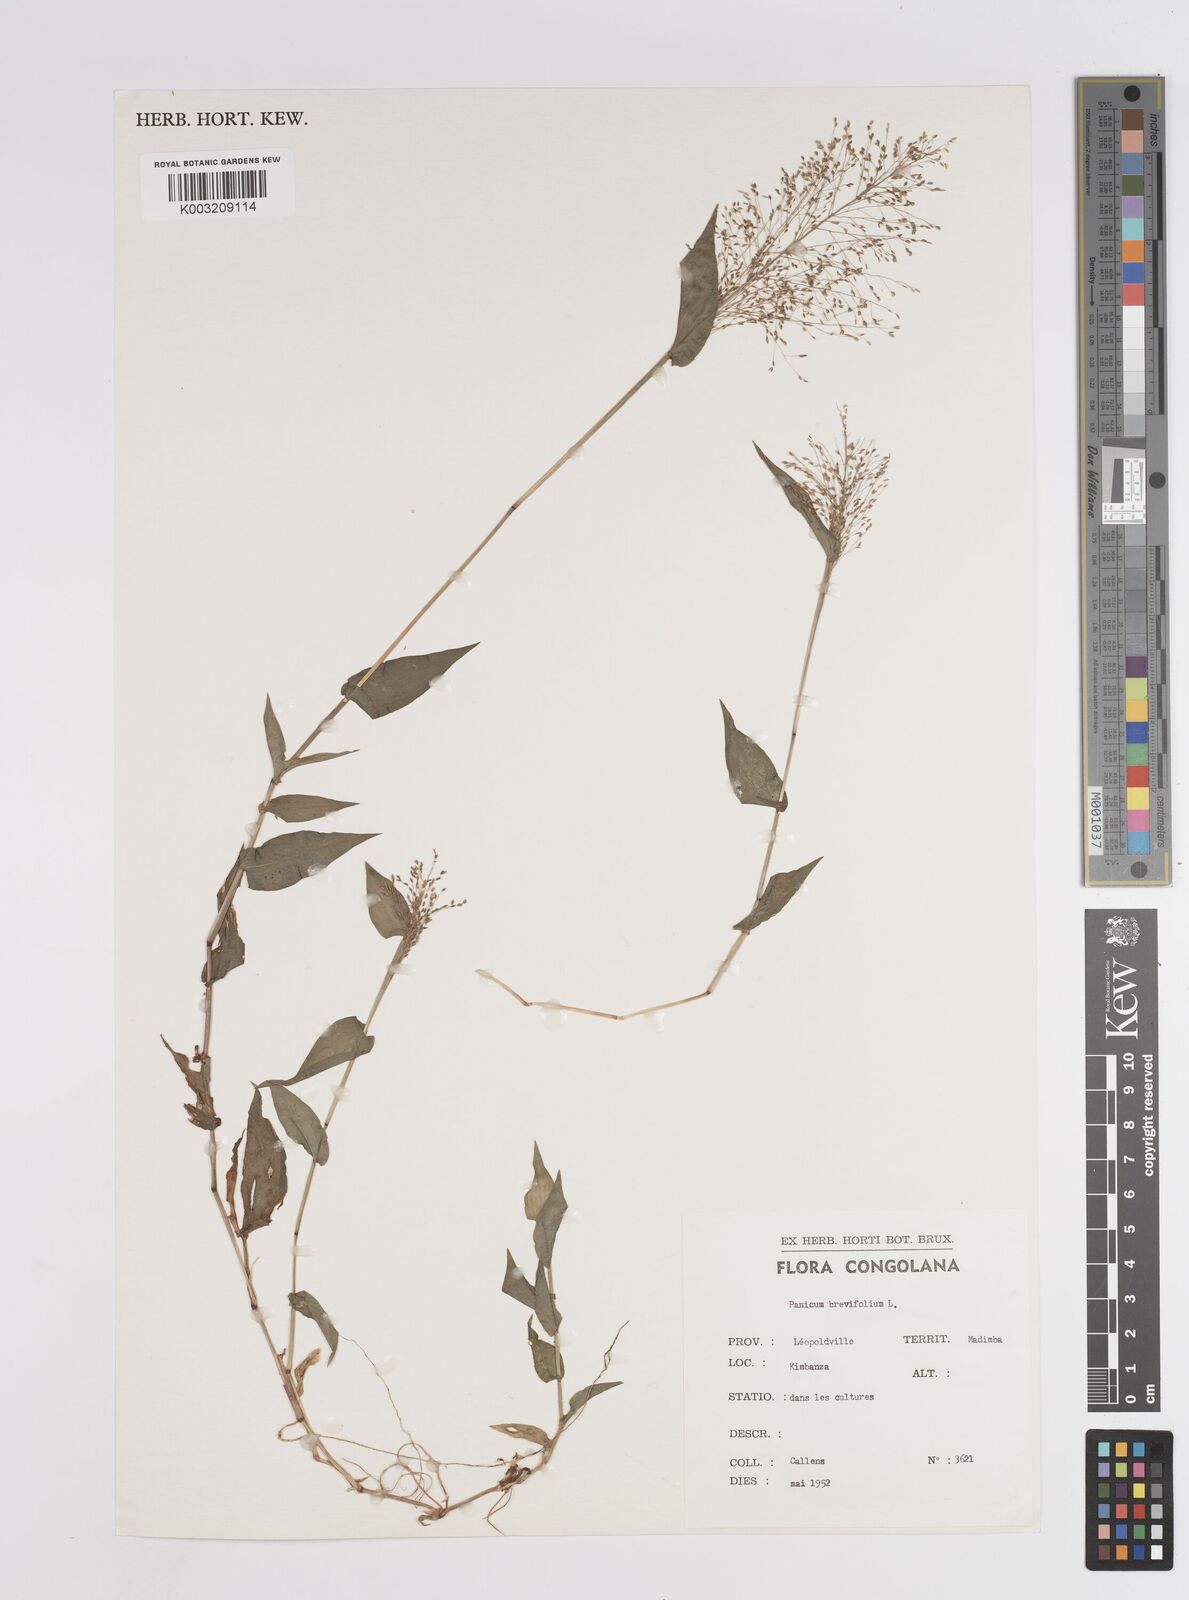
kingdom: Plantae
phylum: Tracheophyta
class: Liliopsida
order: Poales
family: Poaceae
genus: Panicum
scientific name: Panicum brevifolium
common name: Shortleaf panic grass
